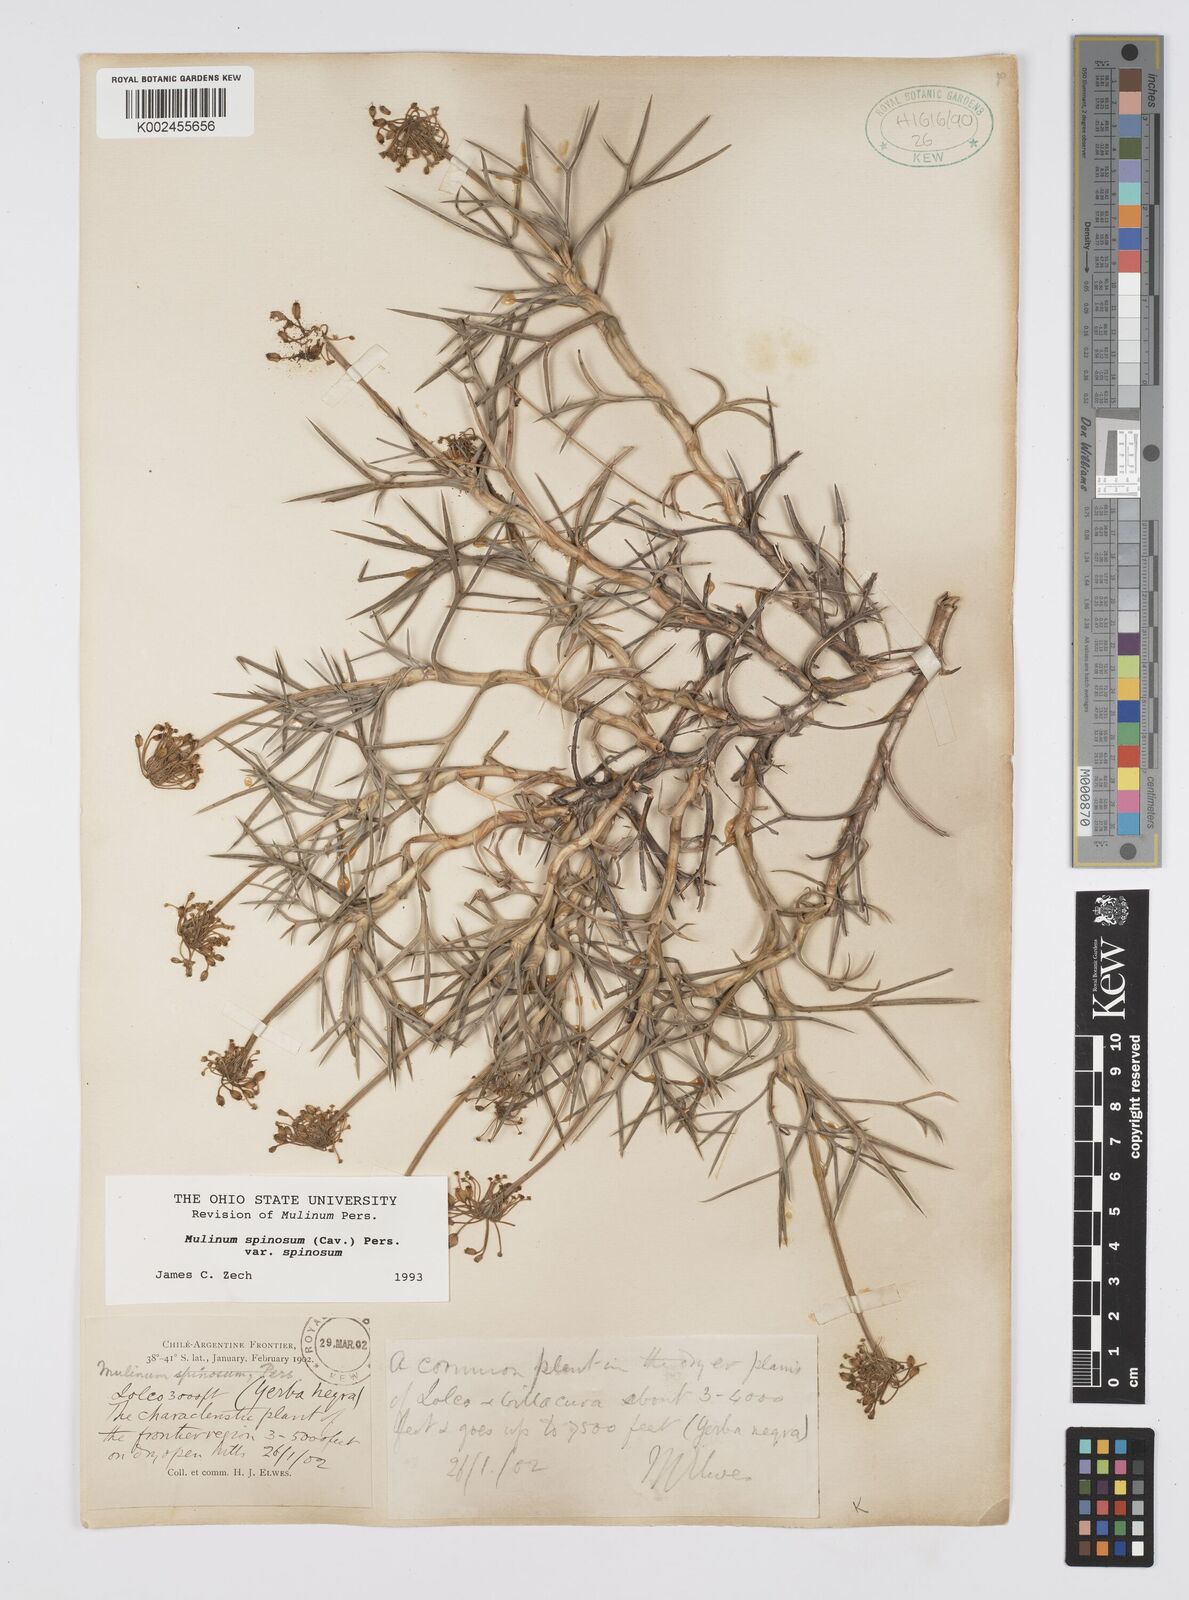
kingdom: Plantae
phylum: Tracheophyta
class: Magnoliopsida
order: Apiales
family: Apiaceae
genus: Azorella
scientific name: Azorella prolifera
